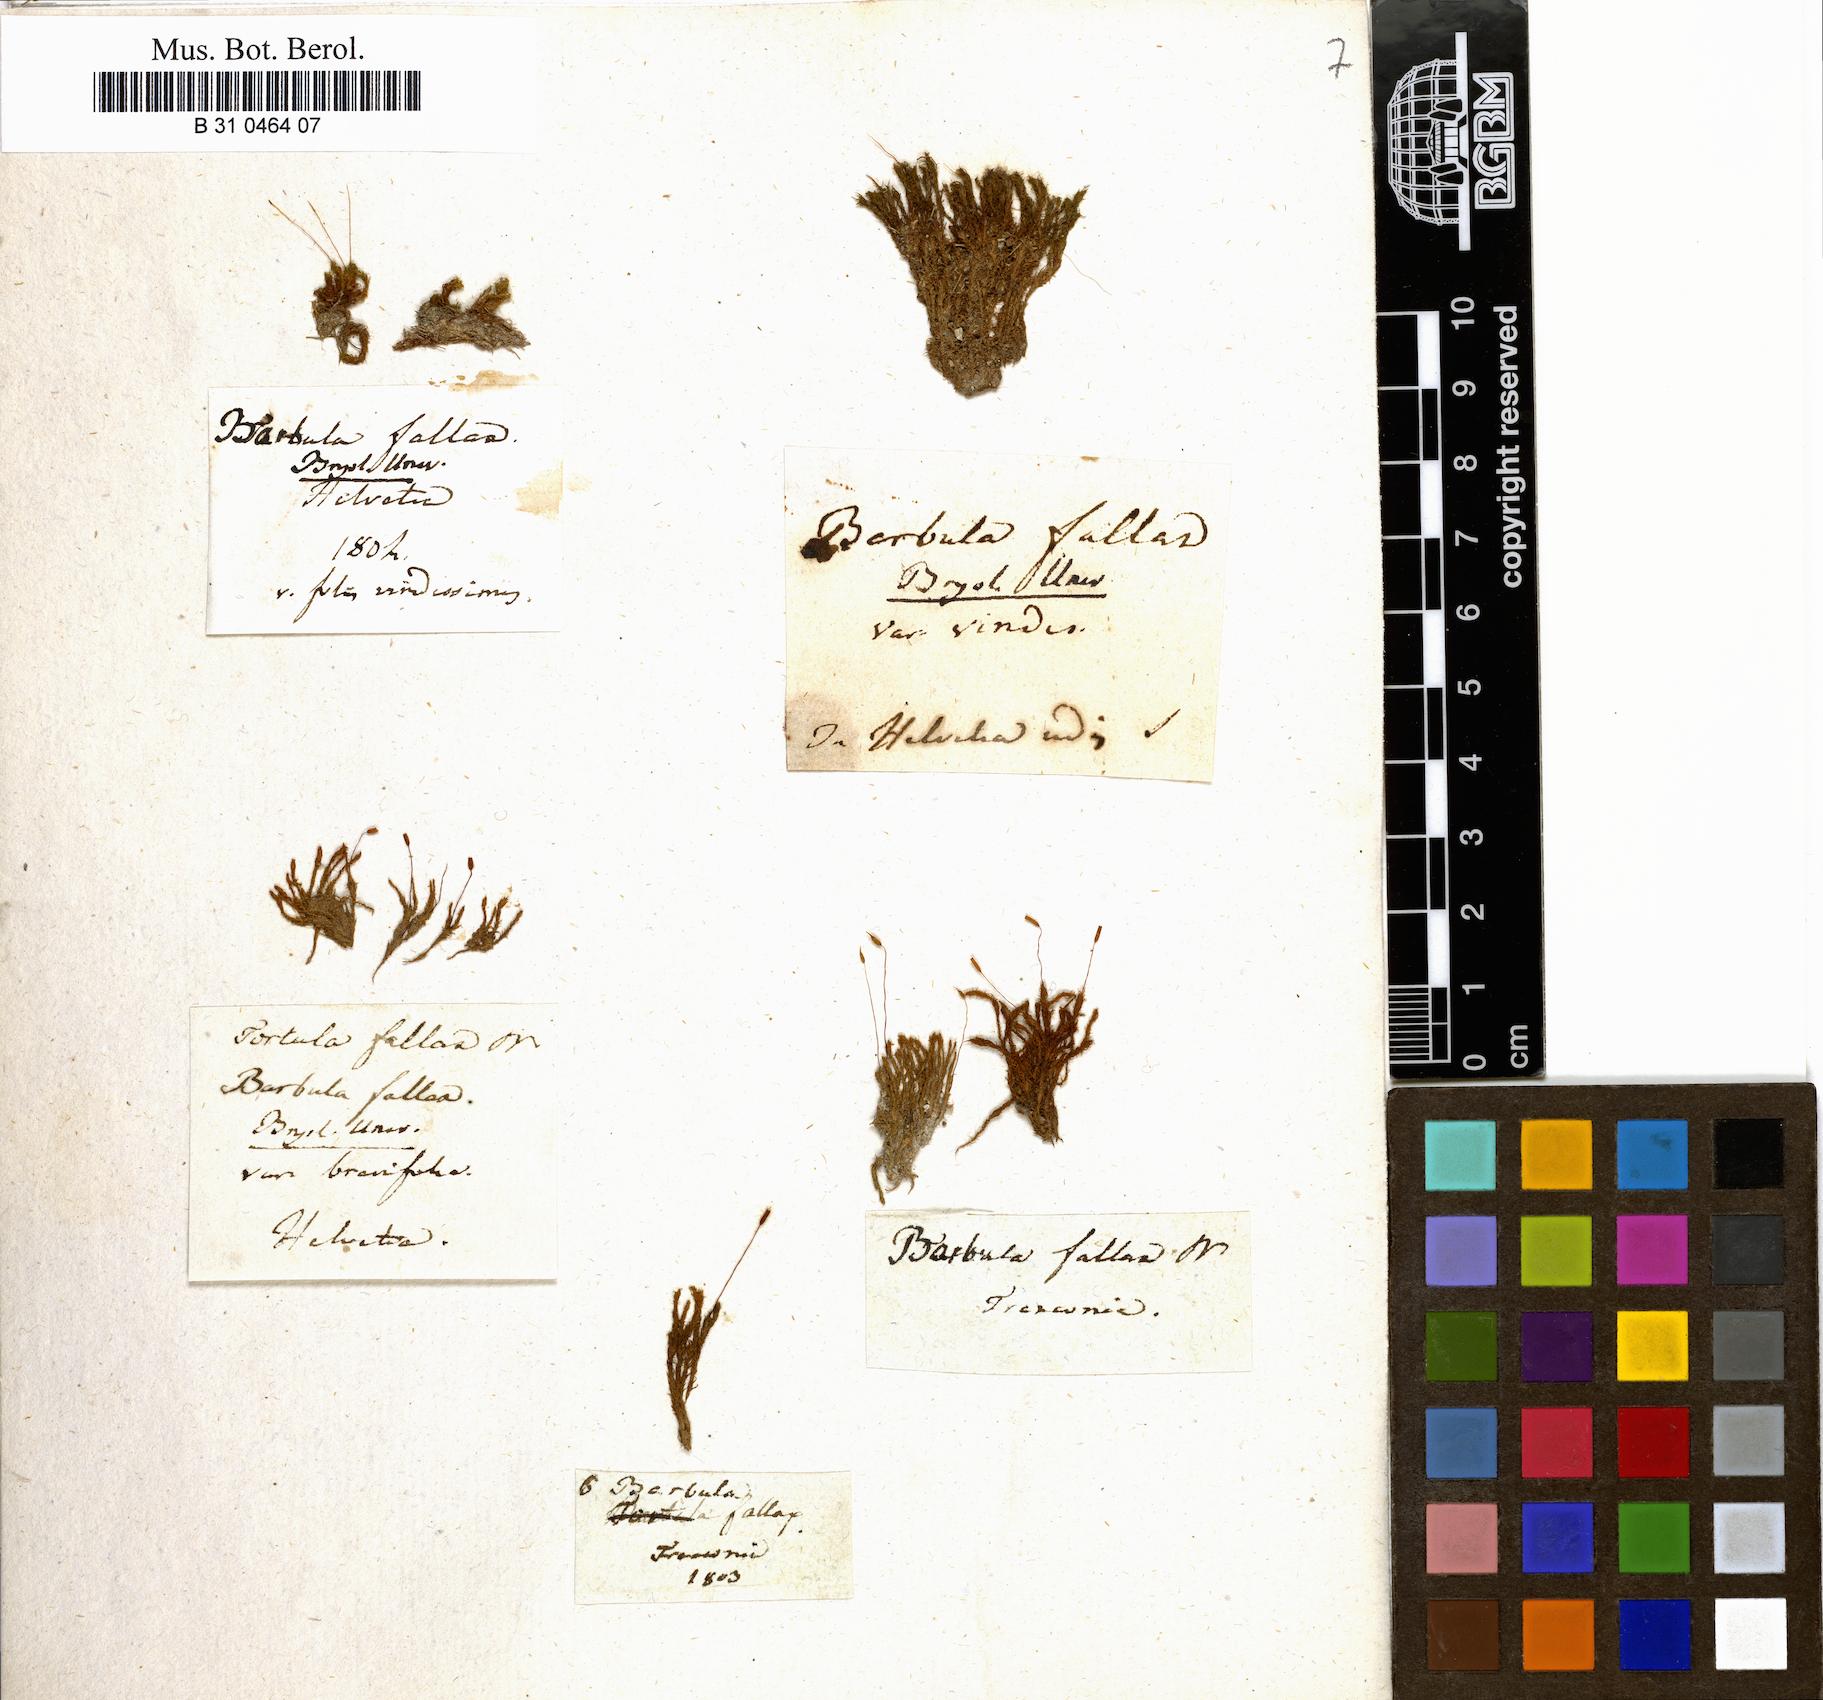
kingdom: Plantae
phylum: Bryophyta
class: Bryopsida
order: Pottiales
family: Pottiaceae
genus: Geheebia
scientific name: Geheebia fallax
